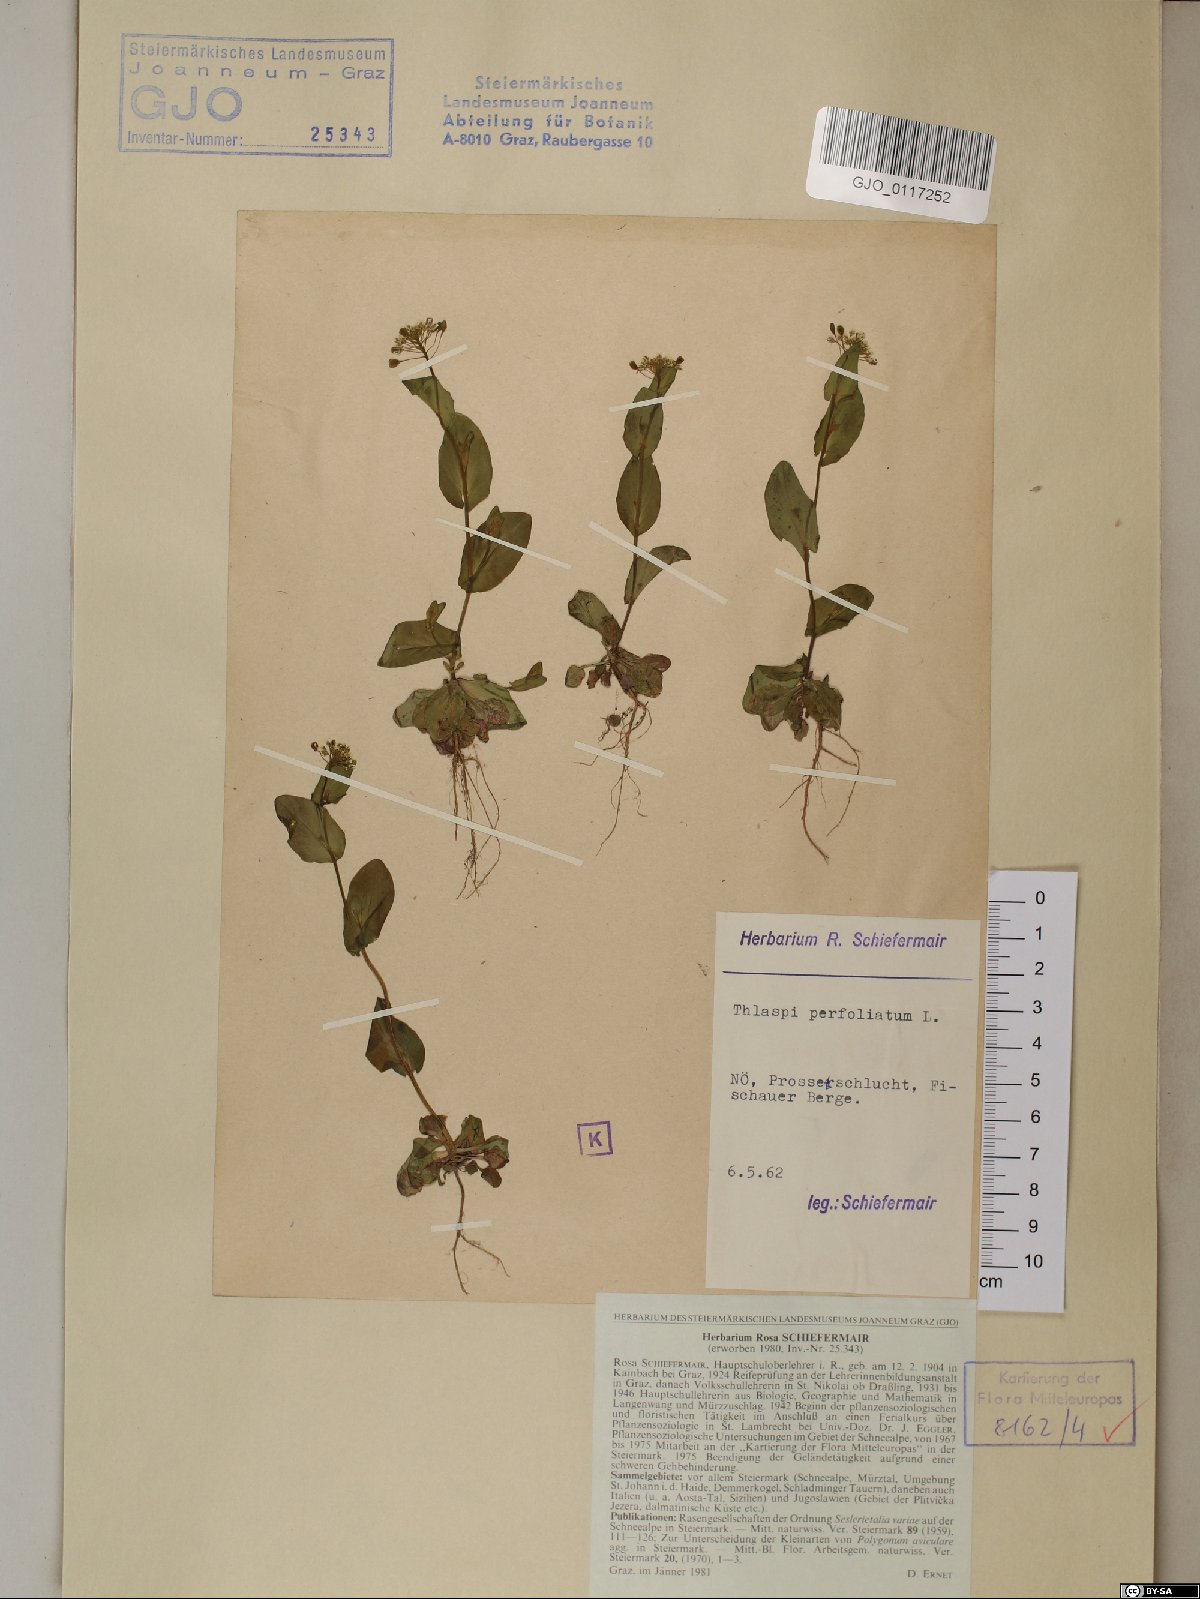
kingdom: Plantae
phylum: Tracheophyta
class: Magnoliopsida
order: Brassicales
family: Brassicaceae
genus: Noccaea
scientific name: Noccaea perfoliata
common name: Perfoliate pennycress
